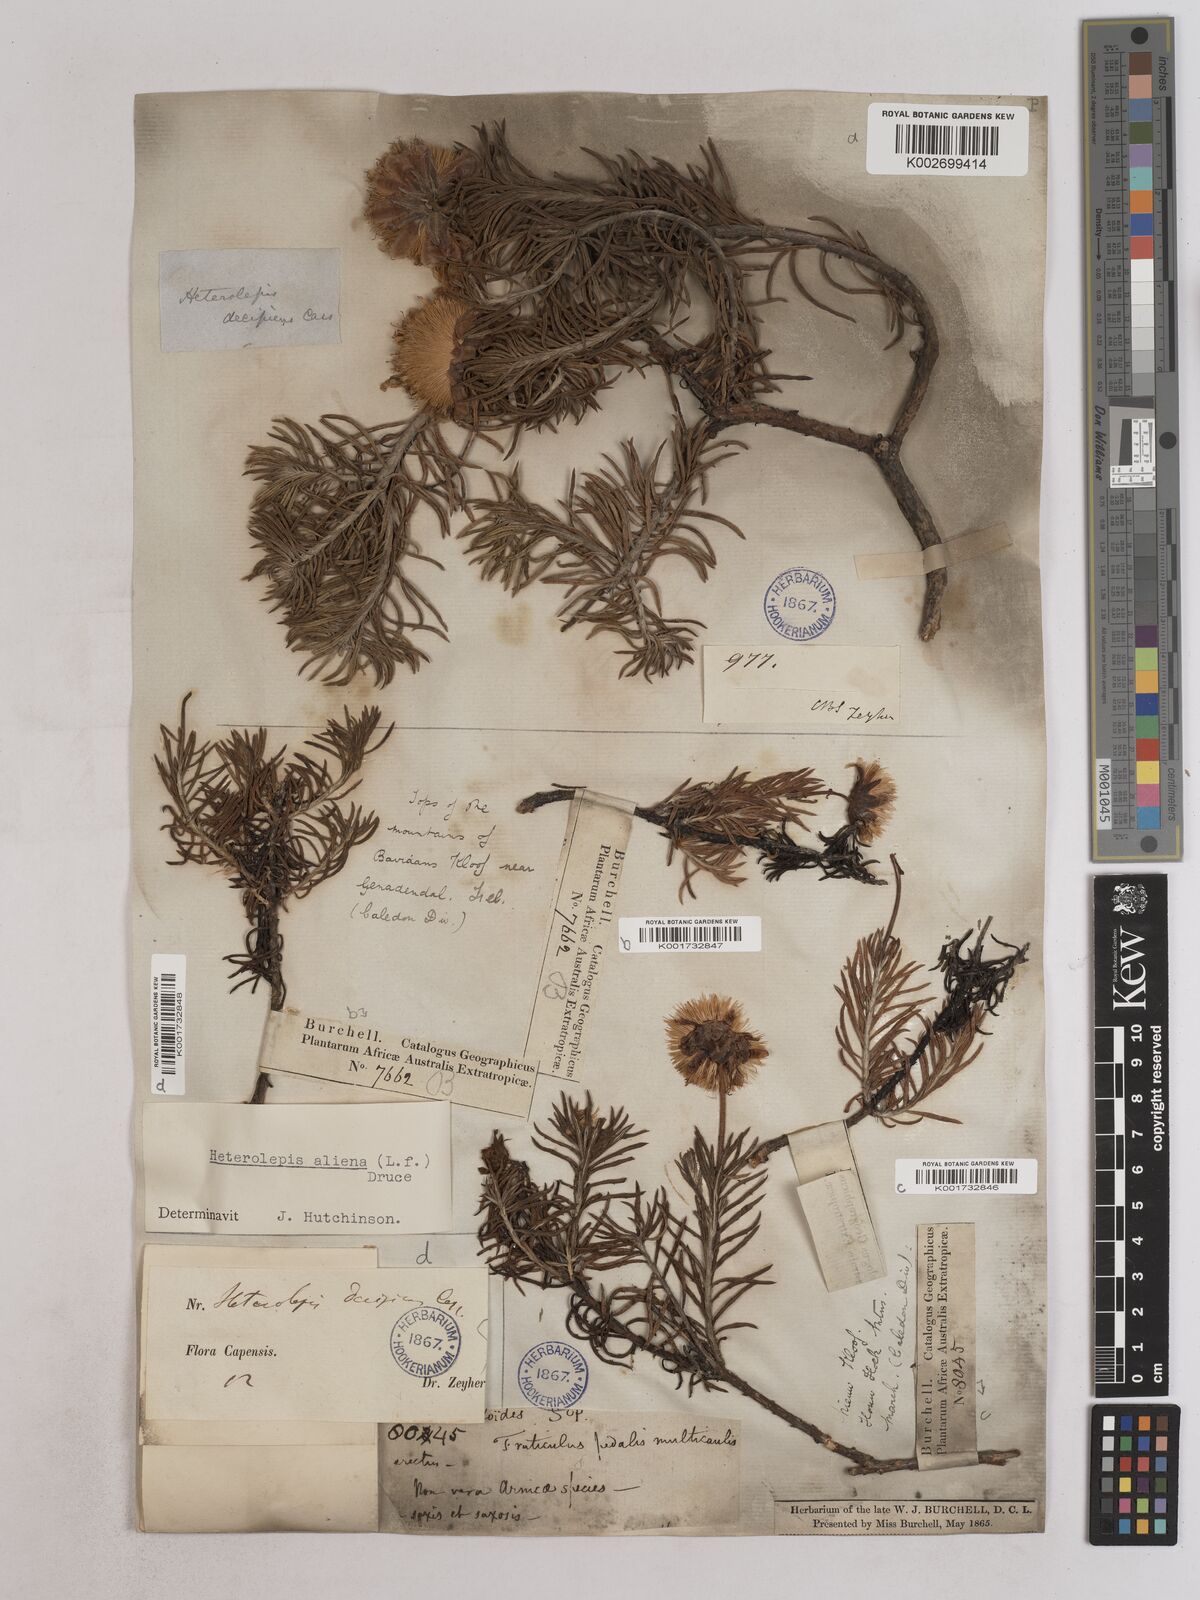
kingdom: Plantae
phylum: Tracheophyta
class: Magnoliopsida
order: Asterales
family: Asteraceae
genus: Heterolepis
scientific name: Heterolepis aliena
